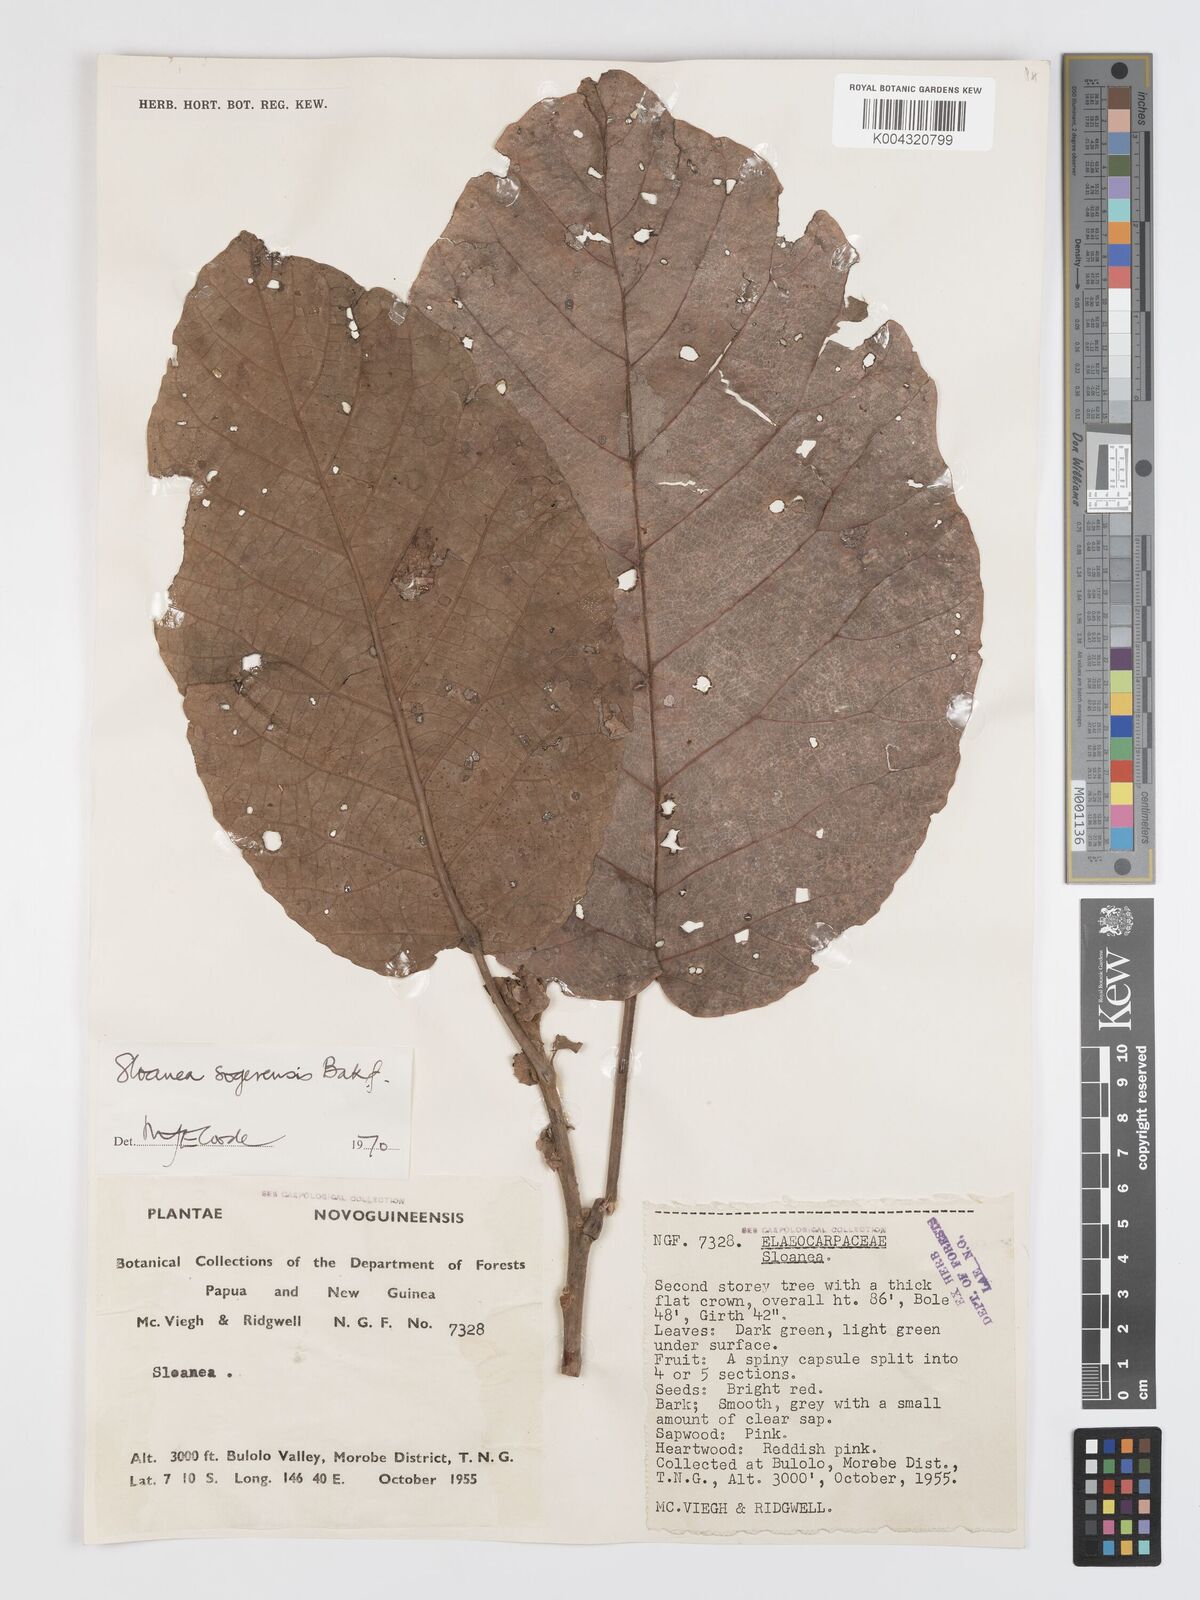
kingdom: Plantae
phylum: Tracheophyta
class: Magnoliopsida
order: Oxalidales
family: Elaeocarpaceae
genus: Sloanea
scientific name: Sloanea sogerensis
